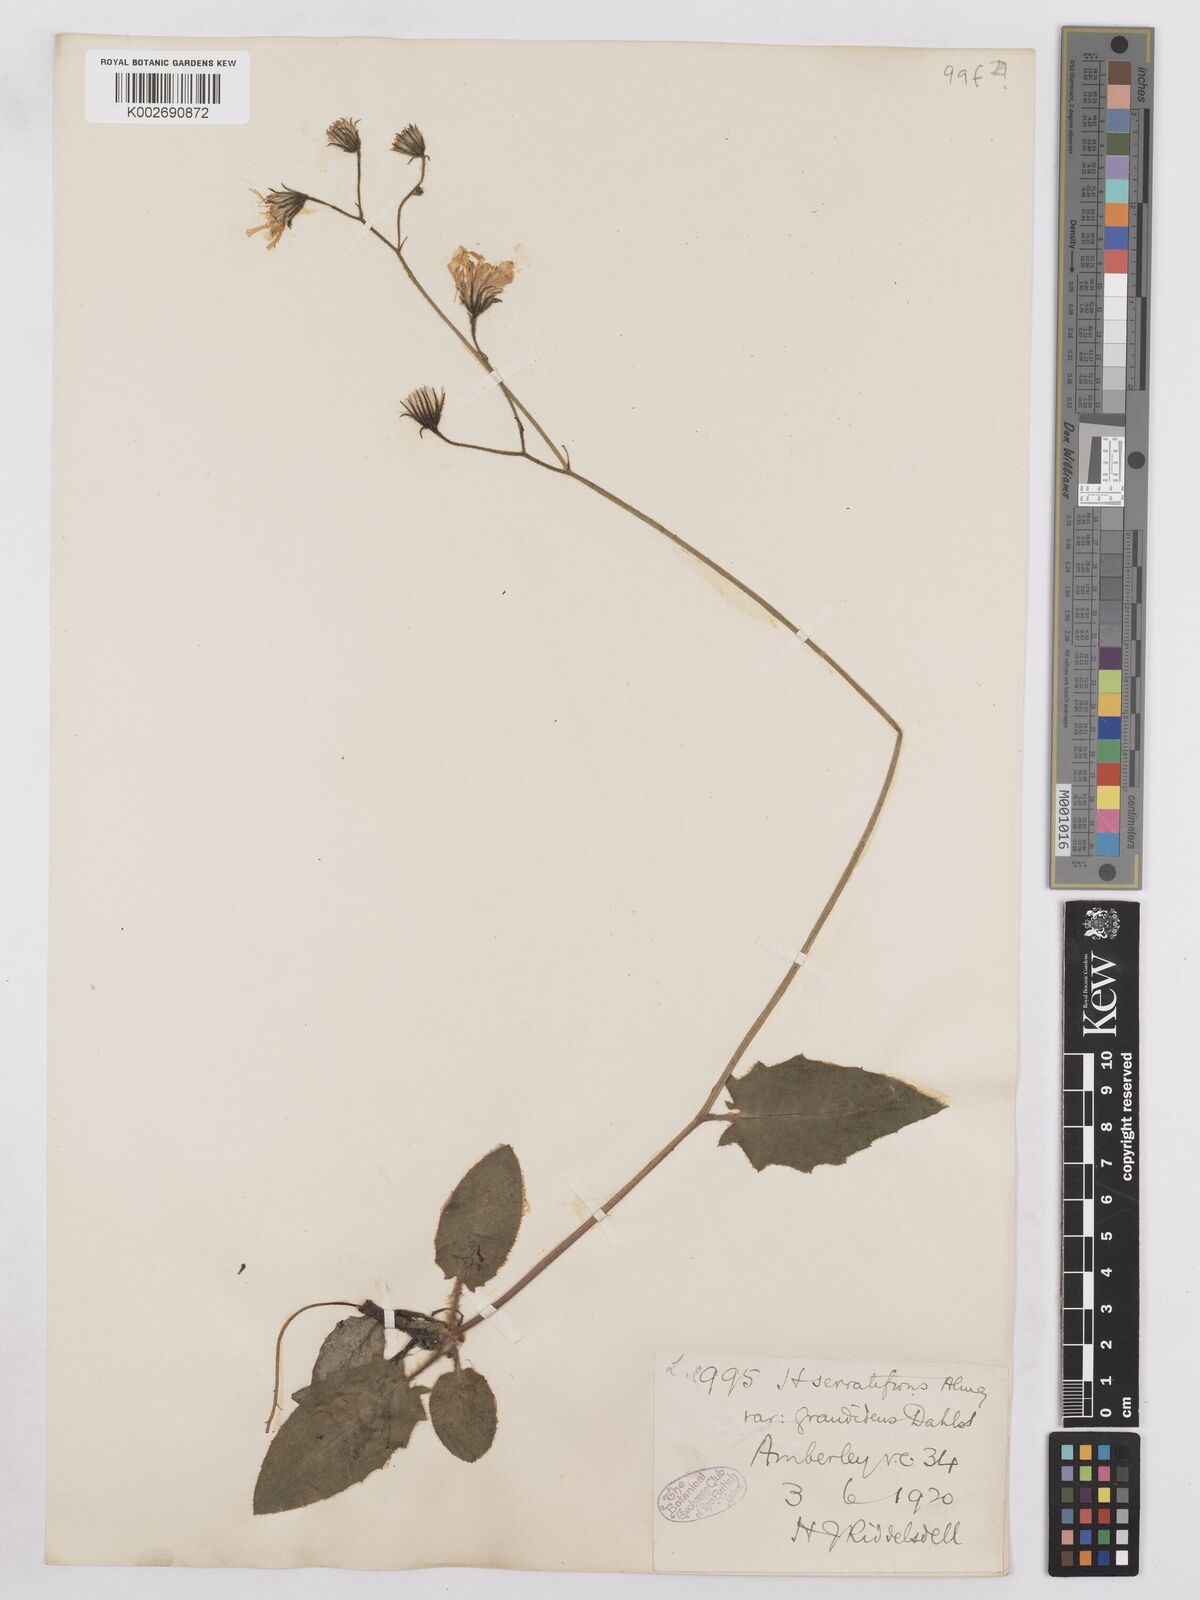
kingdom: Plantae
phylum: Tracheophyta
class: Magnoliopsida
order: Asterales
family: Asteraceae
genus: Hieracium
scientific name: Hieracium murorum
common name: Wall hawkweed
